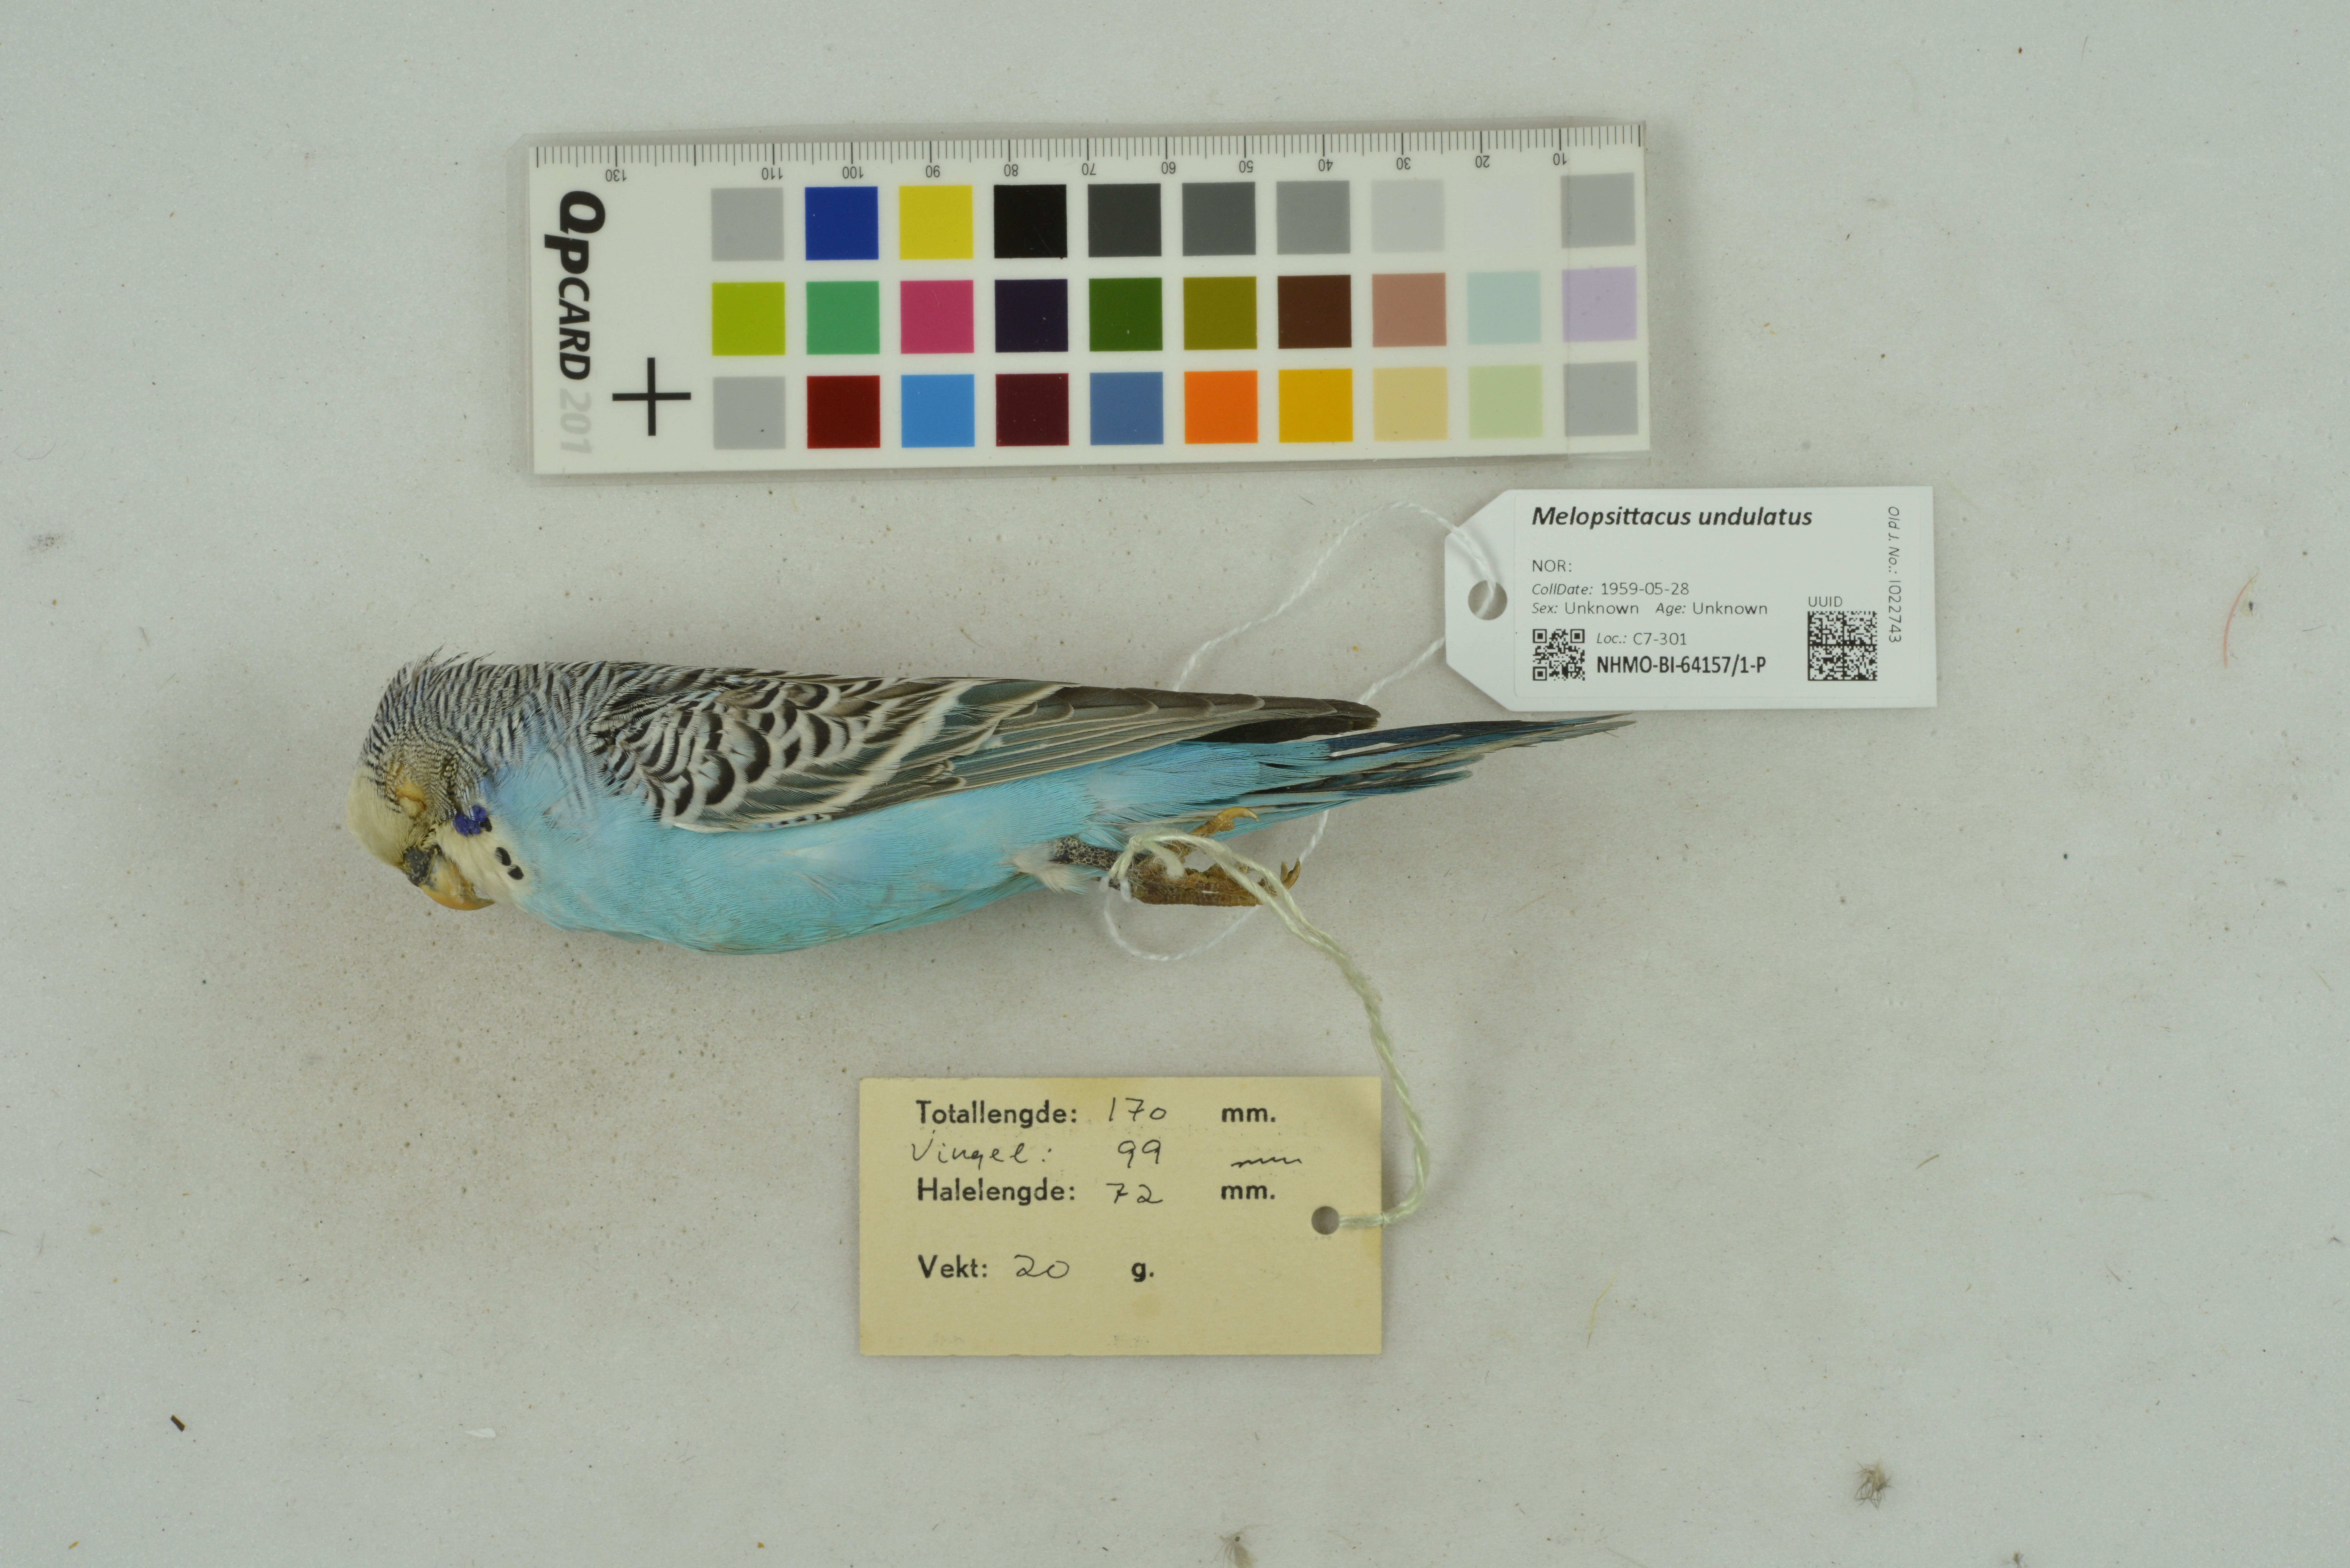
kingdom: Animalia
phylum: Chordata
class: Aves
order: Psittaciformes
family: Psittacidae
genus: Melopsittacus
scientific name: Melopsittacus undulatus
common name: Budgerigar
